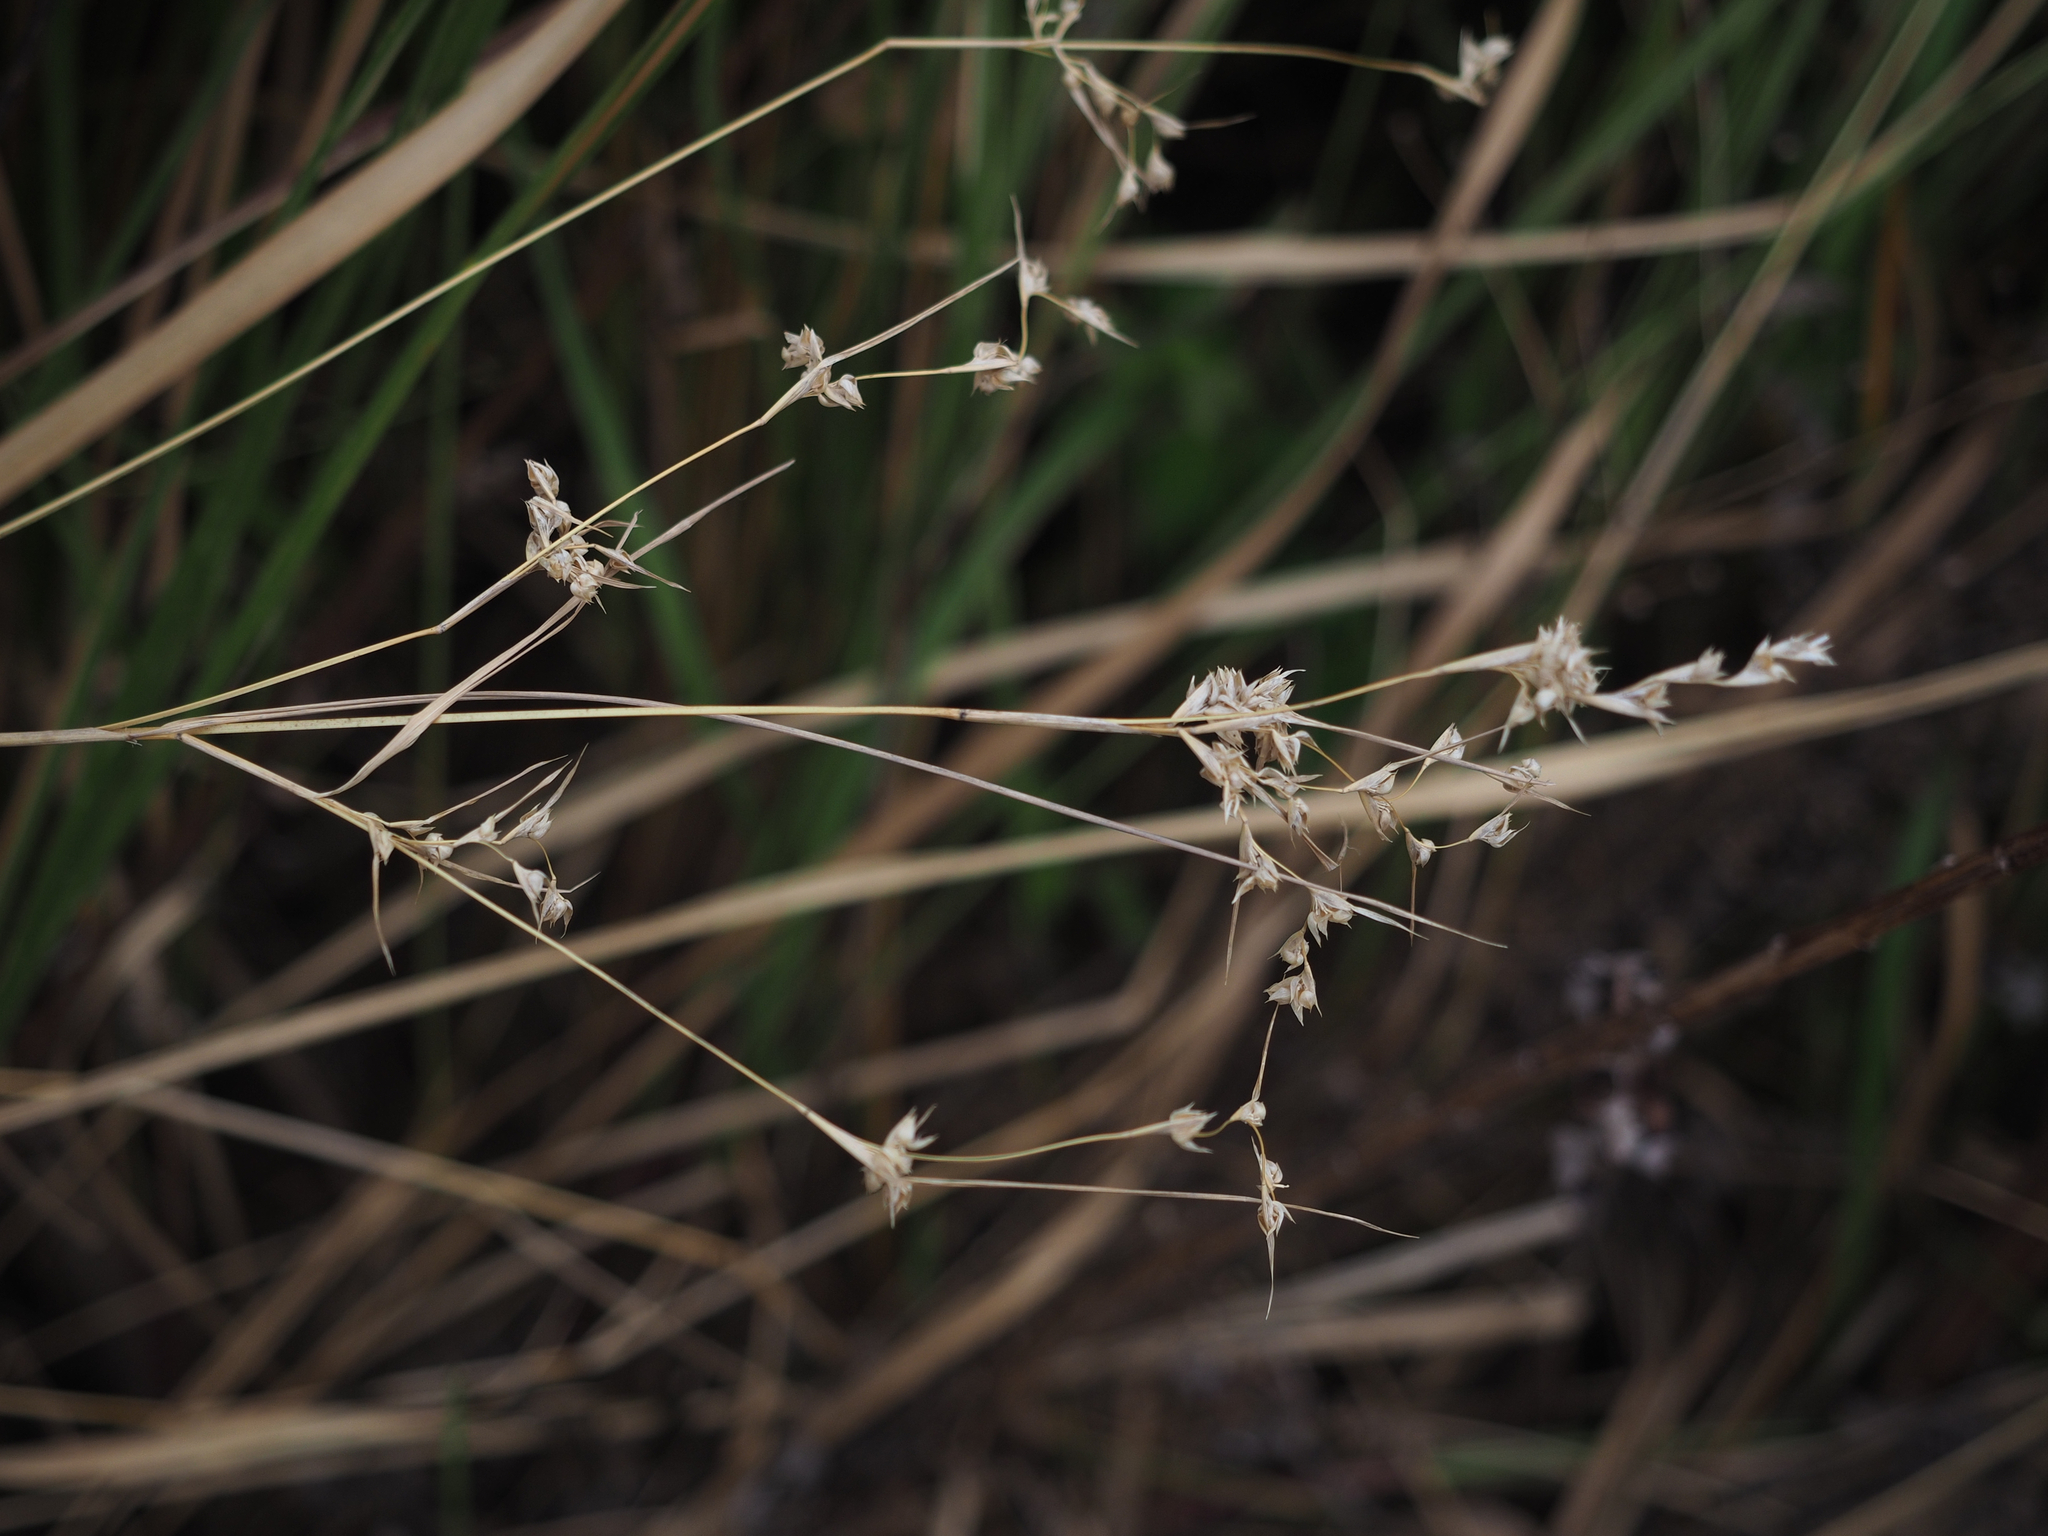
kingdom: Plantae
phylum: Tracheophyta
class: Liliopsida
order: Poales
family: Poaceae
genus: Apluda
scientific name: Apluda mutica
